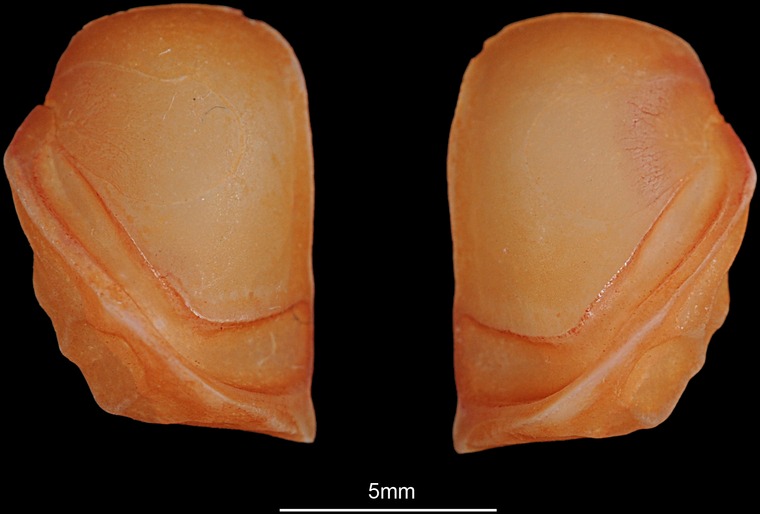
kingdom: Animalia
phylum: Chordata
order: Perciformes
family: Sciaenidae
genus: Pseudotolithus
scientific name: Pseudotolithus elongatus
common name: Bobo croaker
